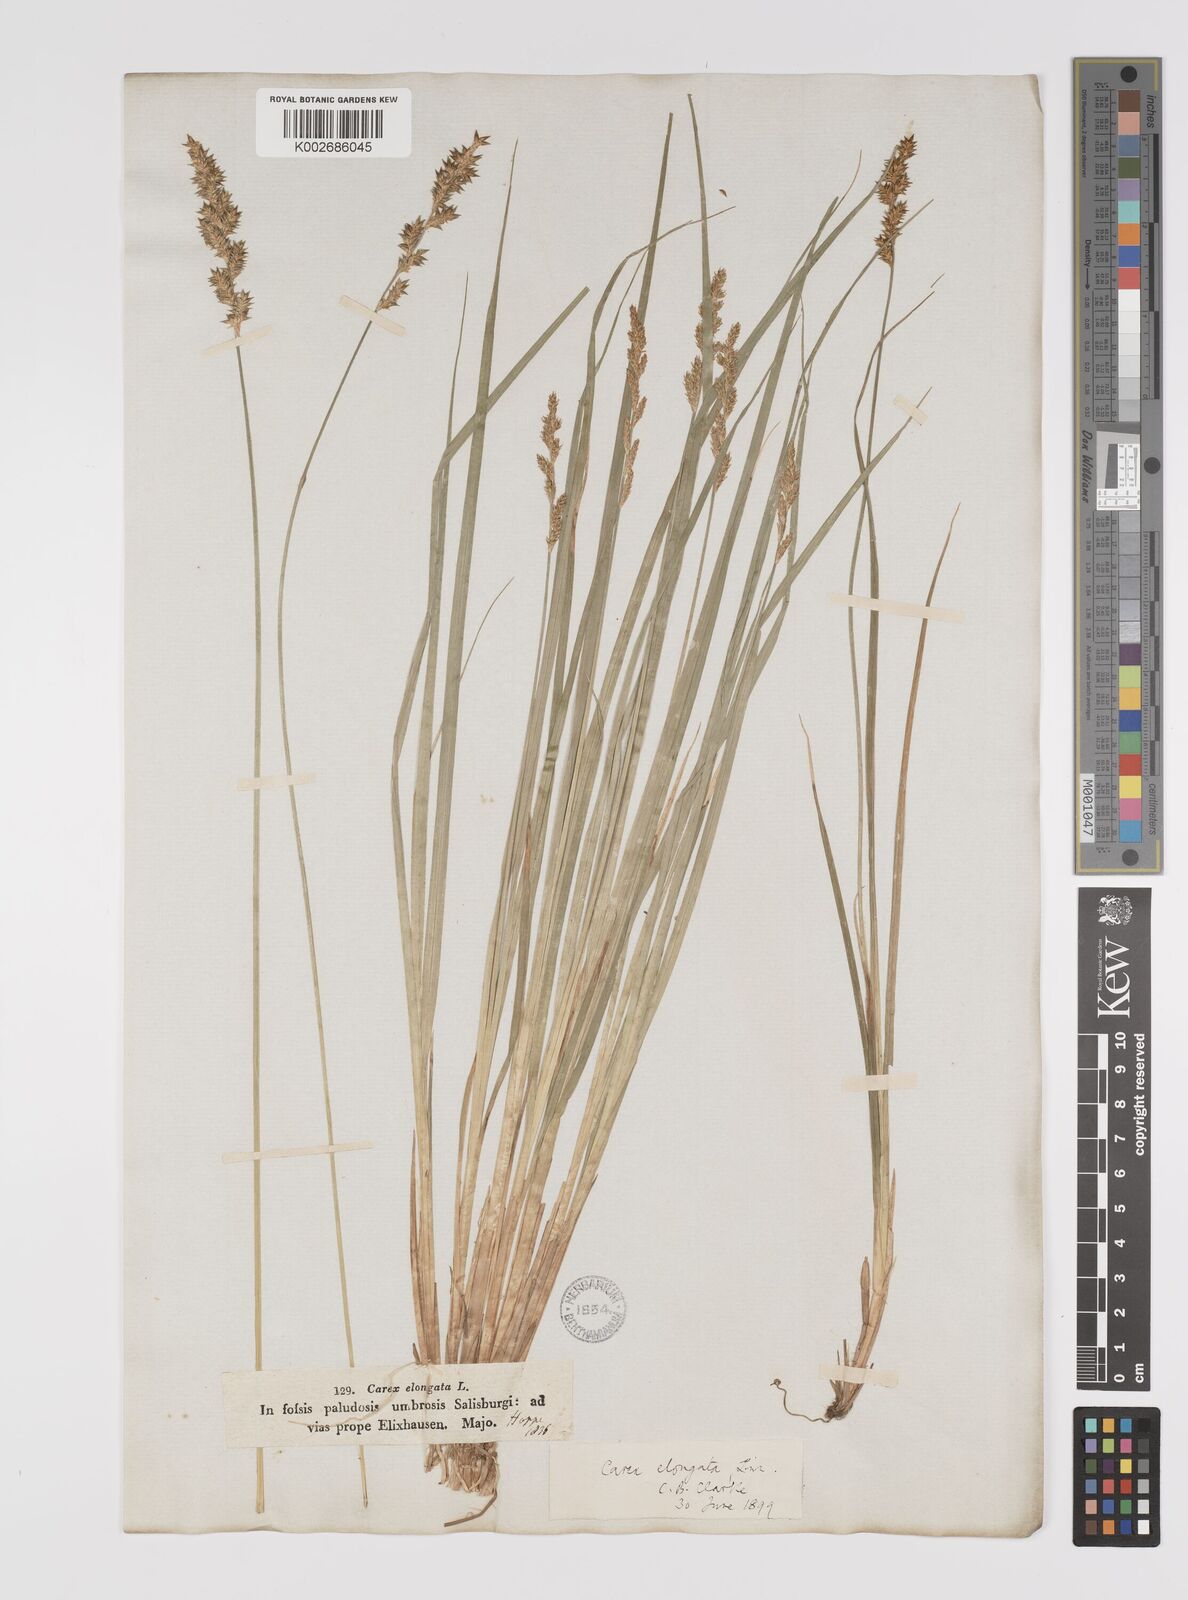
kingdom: Plantae
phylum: Tracheophyta
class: Liliopsida
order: Poales
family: Cyperaceae
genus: Carex
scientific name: Carex elongata
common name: Elongated sedge
